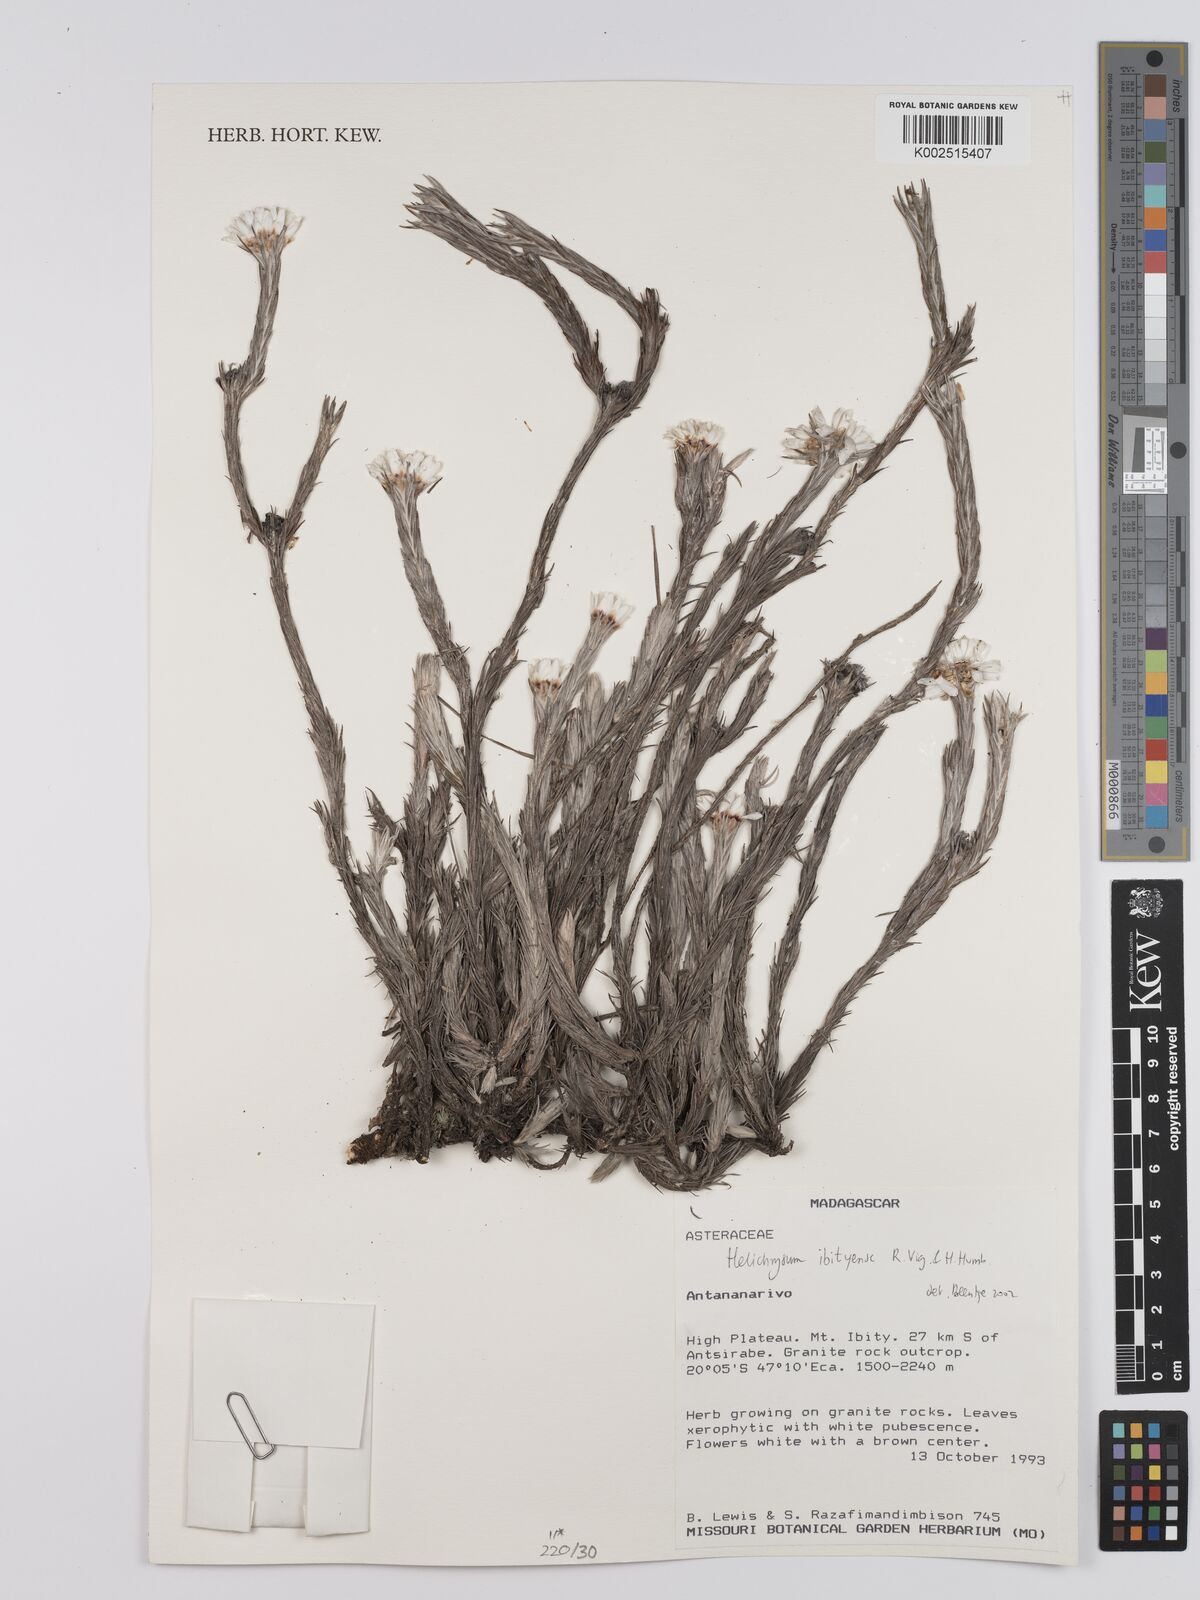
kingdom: Plantae
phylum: Tracheophyta
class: Magnoliopsida
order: Asterales
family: Asteraceae
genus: Helichrysum
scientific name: Helichrysum ibityense
